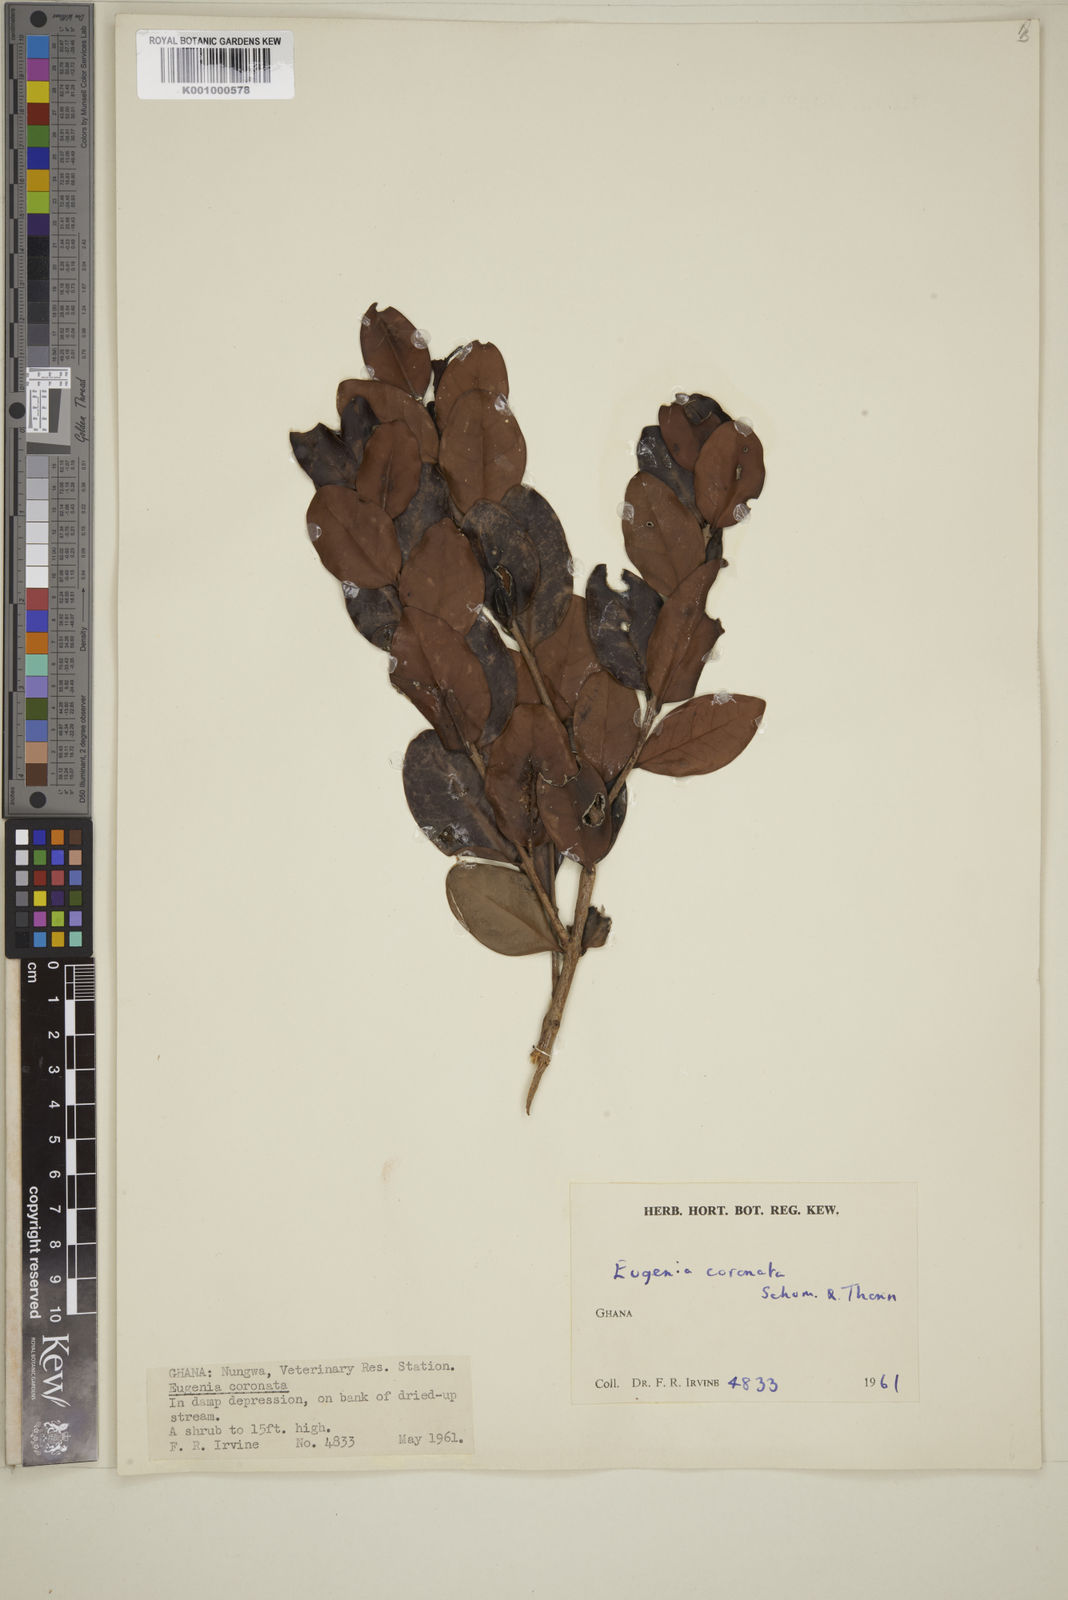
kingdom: Plantae
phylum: Tracheophyta
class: Magnoliopsida
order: Myrtales
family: Myrtaceae
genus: Eugenia
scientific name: Eugenia coronata
